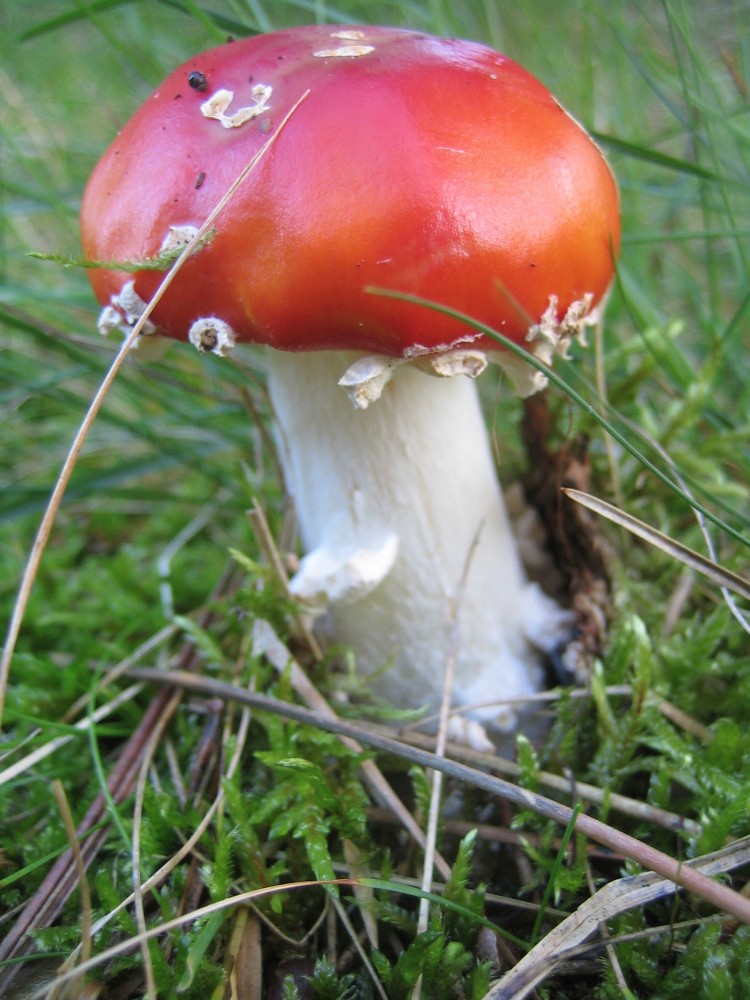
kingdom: Fungi
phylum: Basidiomycota
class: Agaricomycetes
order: Agaricales
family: Amanitaceae
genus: Amanita
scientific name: Amanita muscaria
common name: rød fluesvamp
